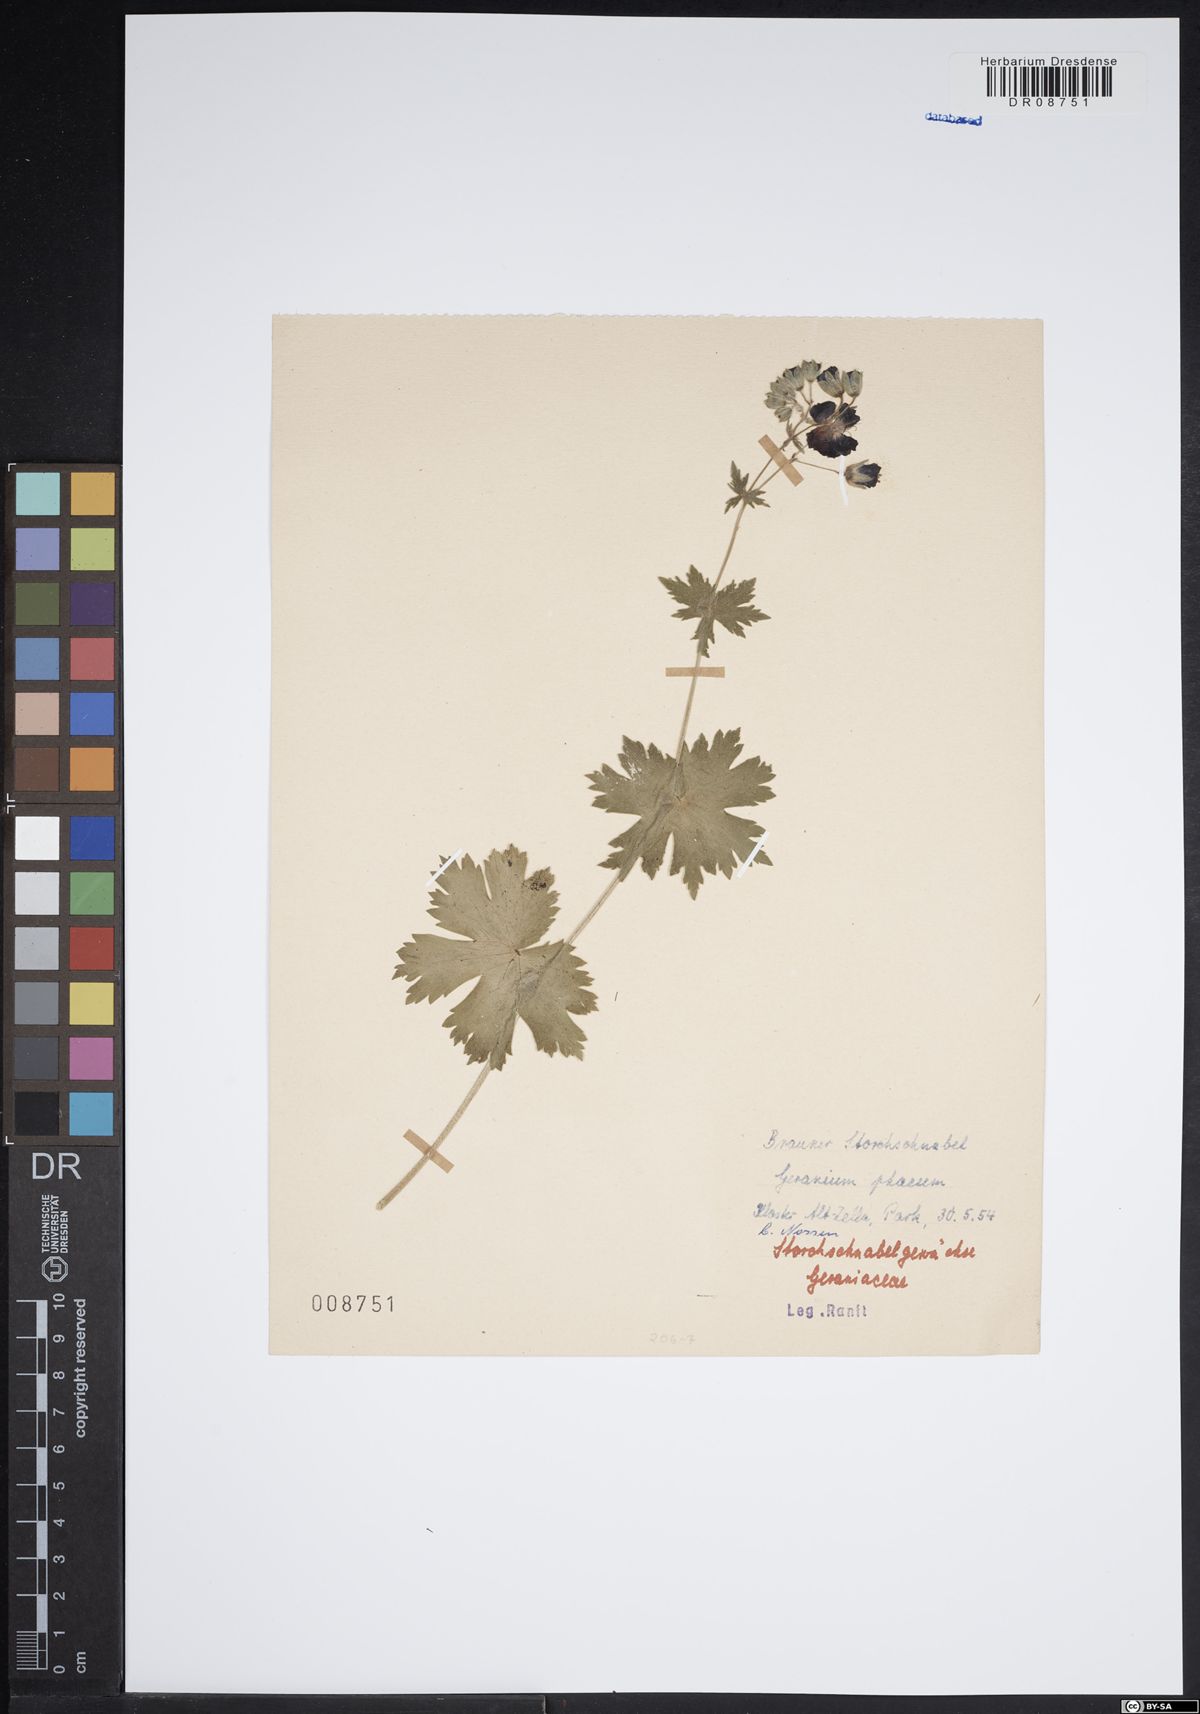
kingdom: Plantae
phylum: Tracheophyta
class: Magnoliopsida
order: Geraniales
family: Geraniaceae
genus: Geranium
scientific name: Geranium phaeum
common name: Dusky crane's-bill
